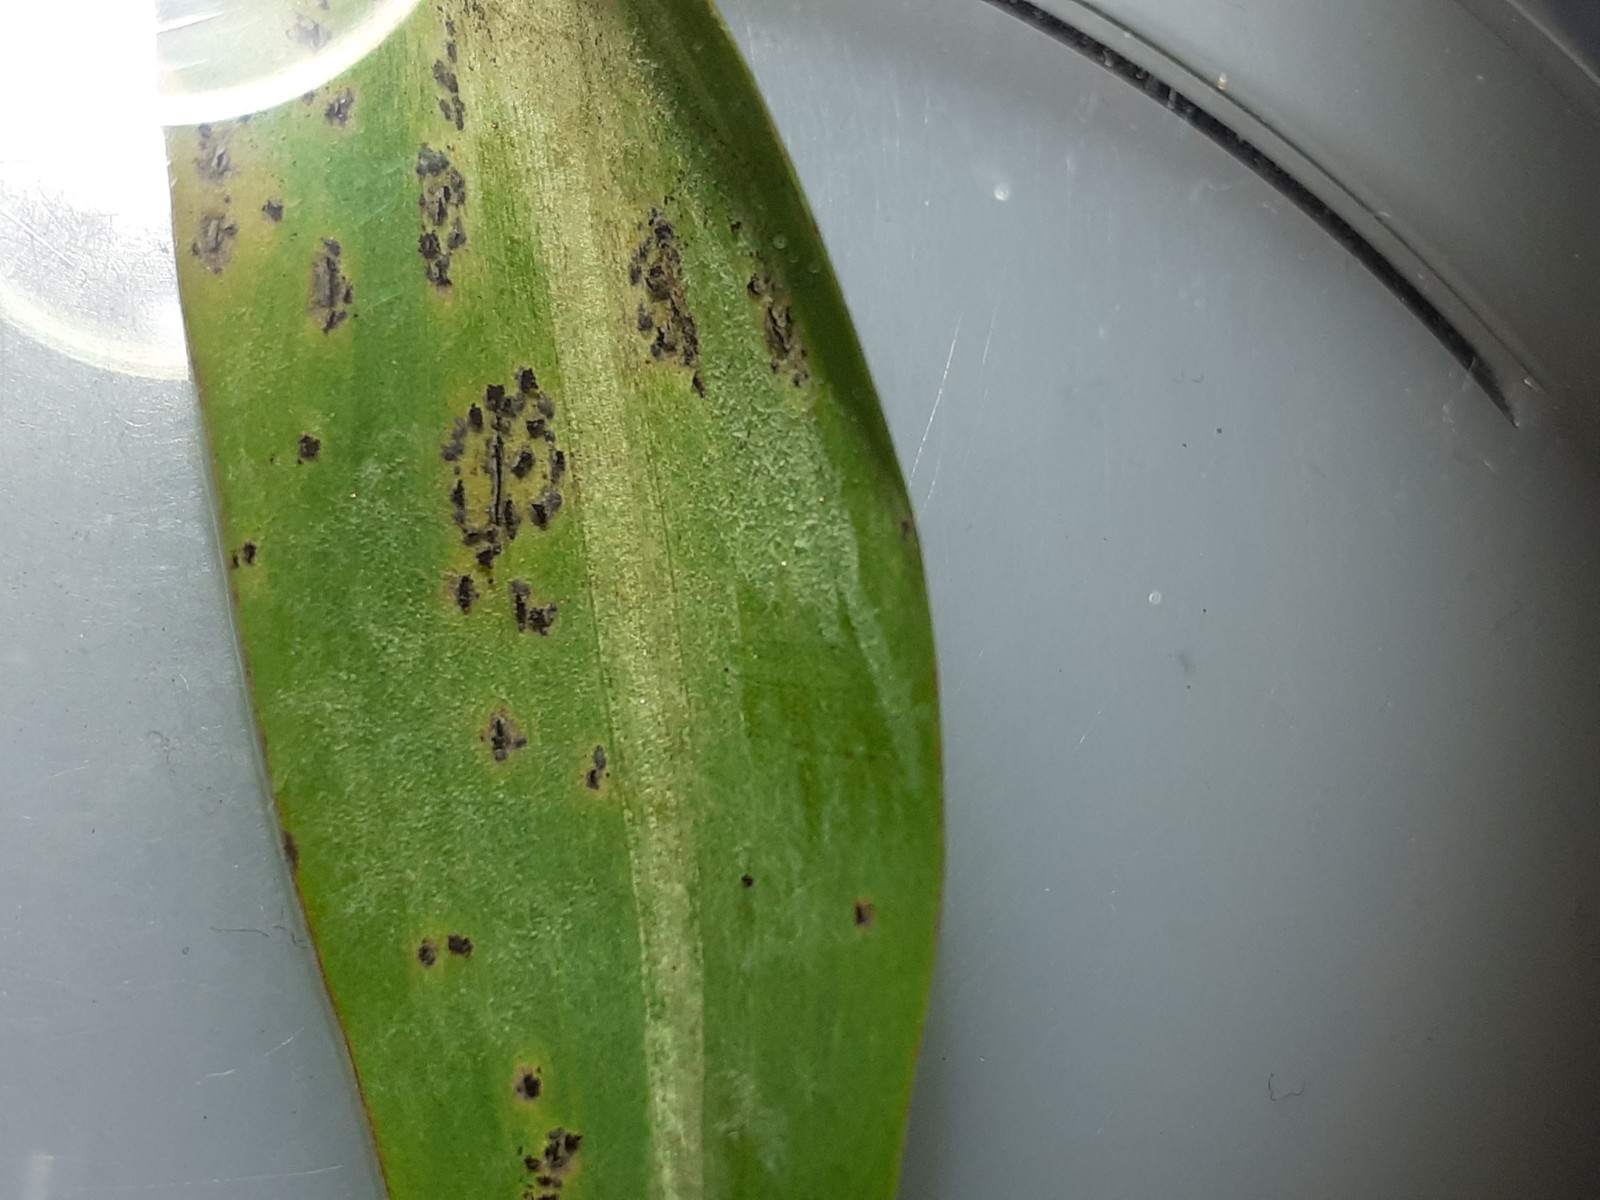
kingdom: Fungi
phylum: Basidiomycota
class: Pucciniomycetes
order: Pucciniales
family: Pucciniaceae
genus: Puccinia
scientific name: Puccinia
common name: tvecellerust
